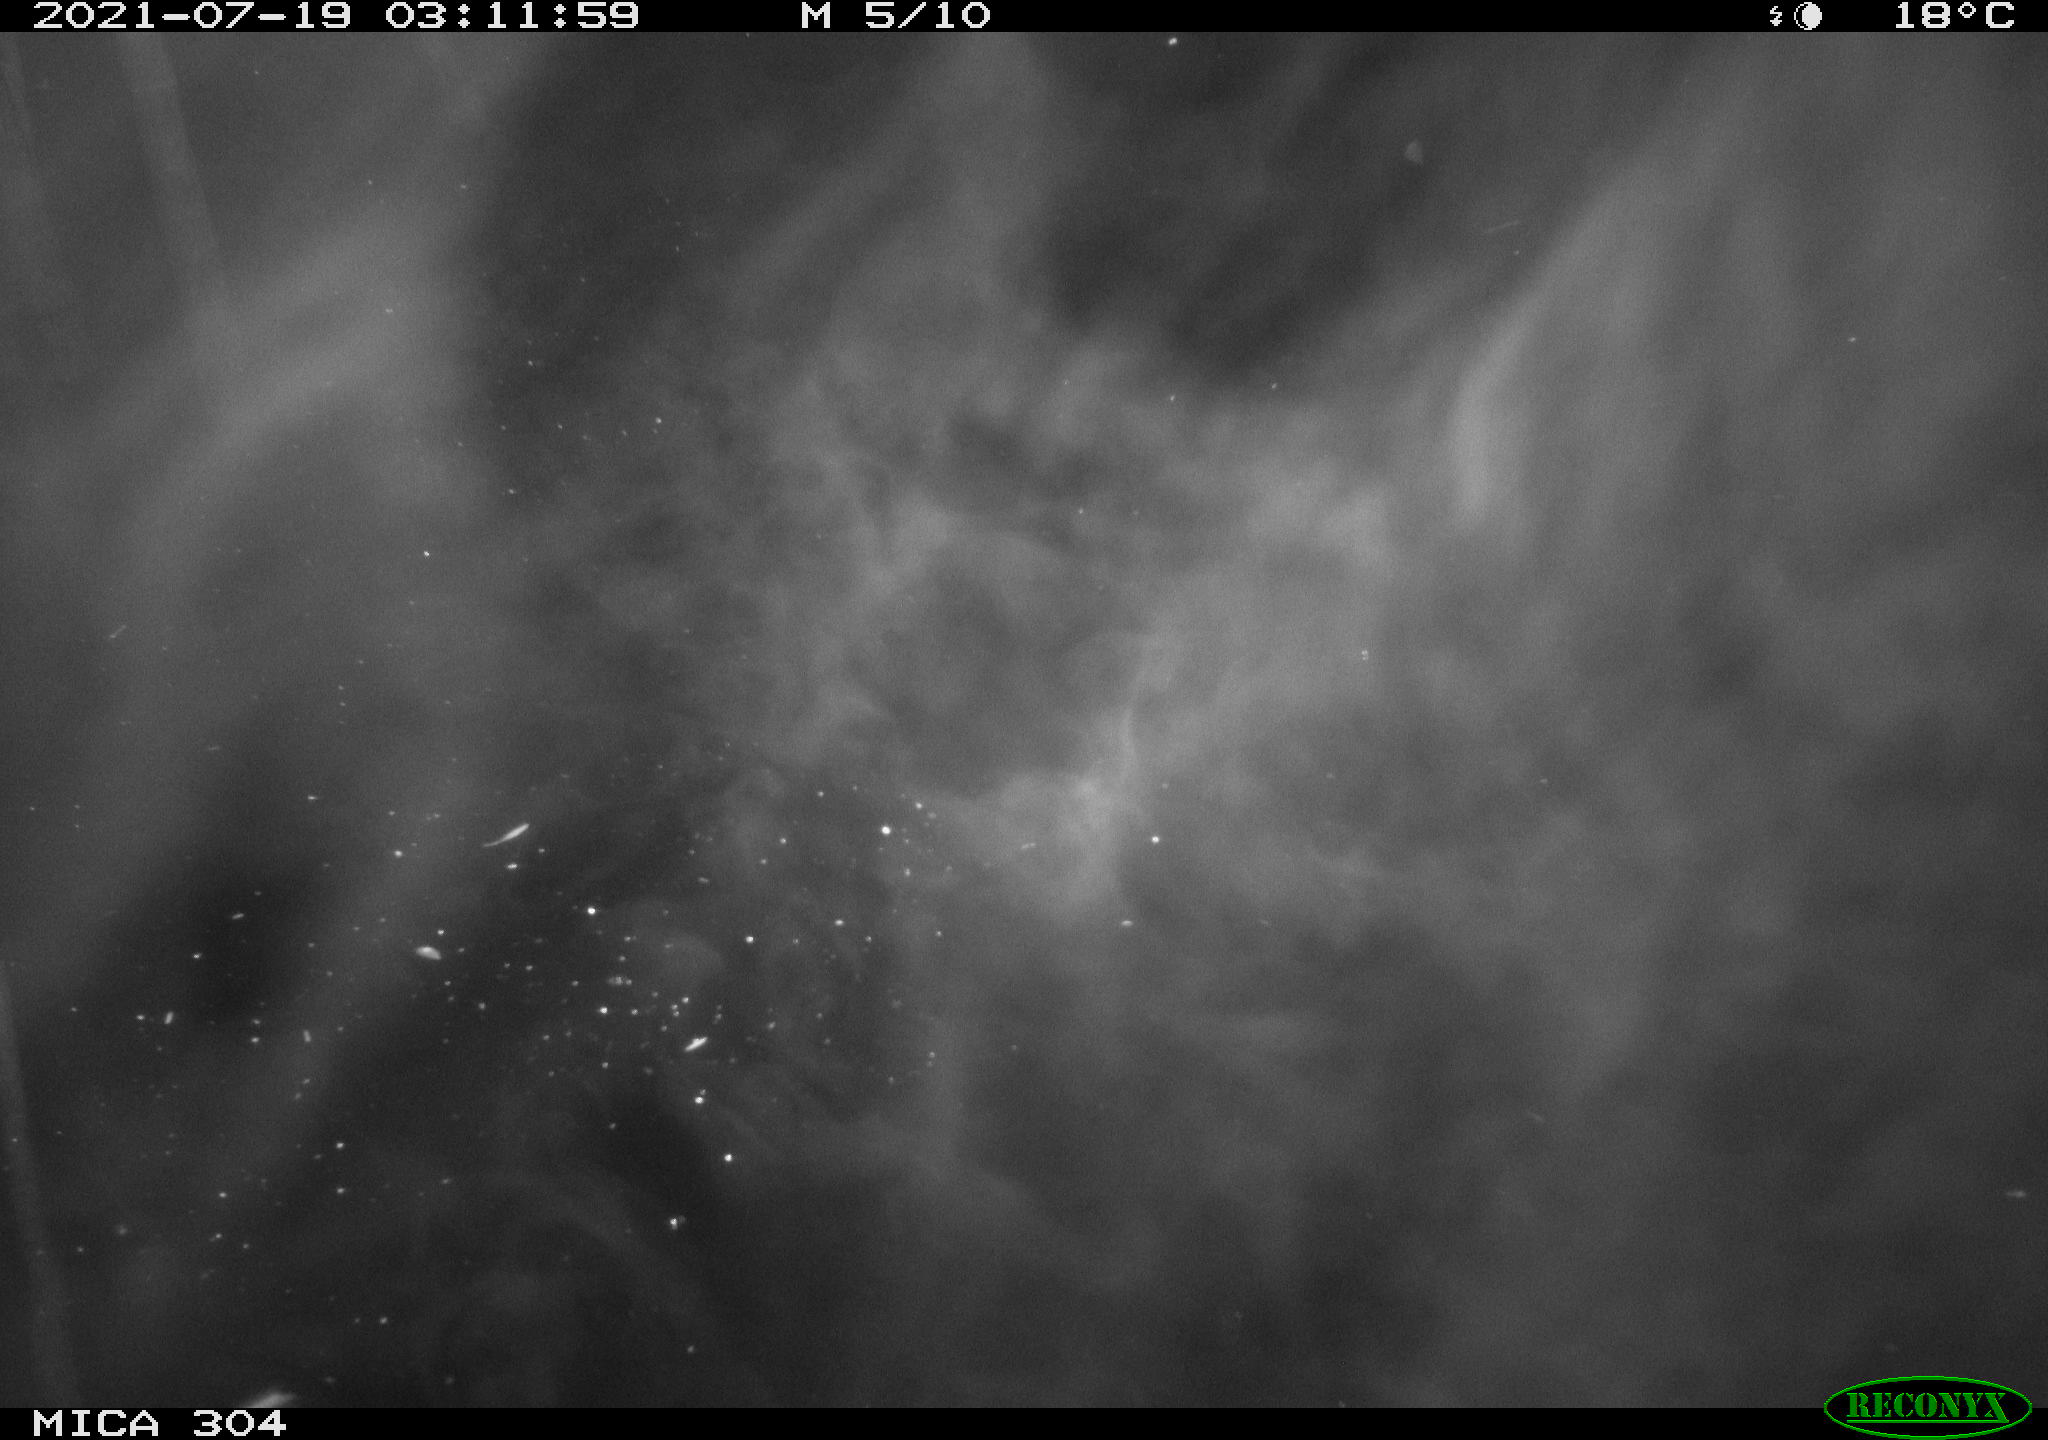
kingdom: Animalia
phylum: Chordata
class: Aves
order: Anseriformes
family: Anatidae
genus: Anas
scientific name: Anas platyrhynchos
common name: Mallard
